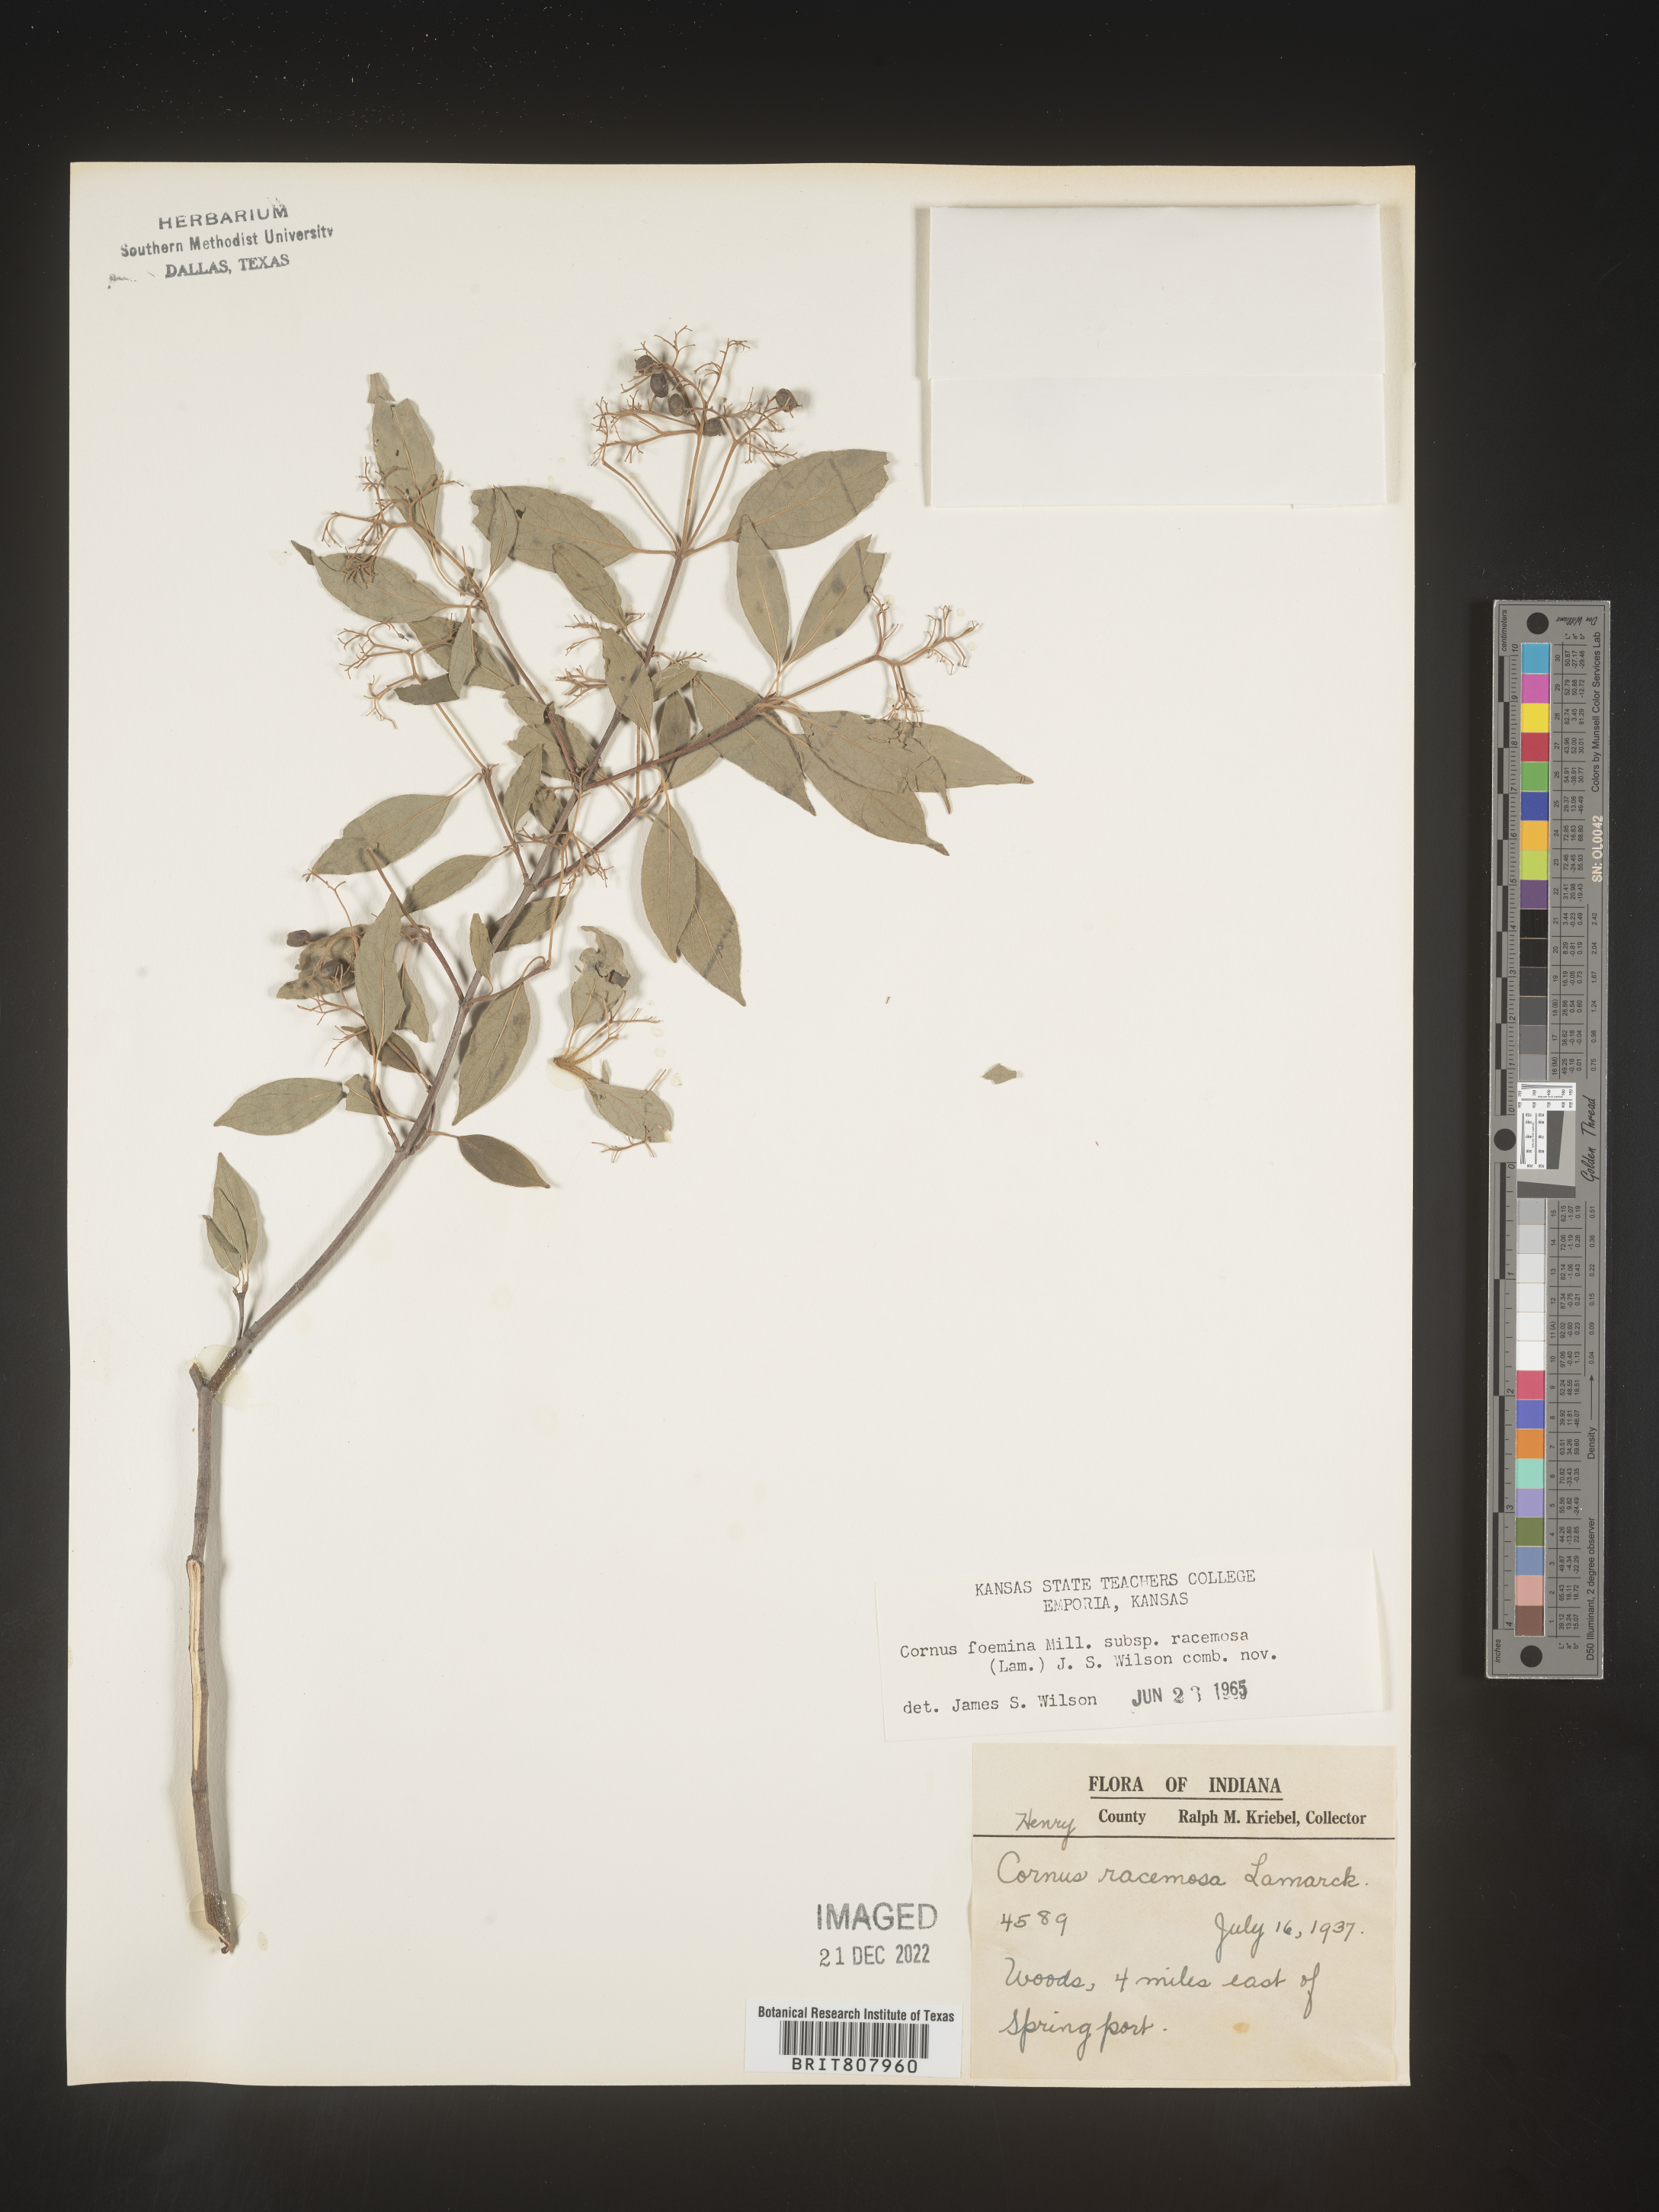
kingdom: Plantae
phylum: Tracheophyta
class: Magnoliopsida
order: Cornales
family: Cornaceae
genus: Cornus
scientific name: Cornus racemosa
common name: Panicled dogwood
